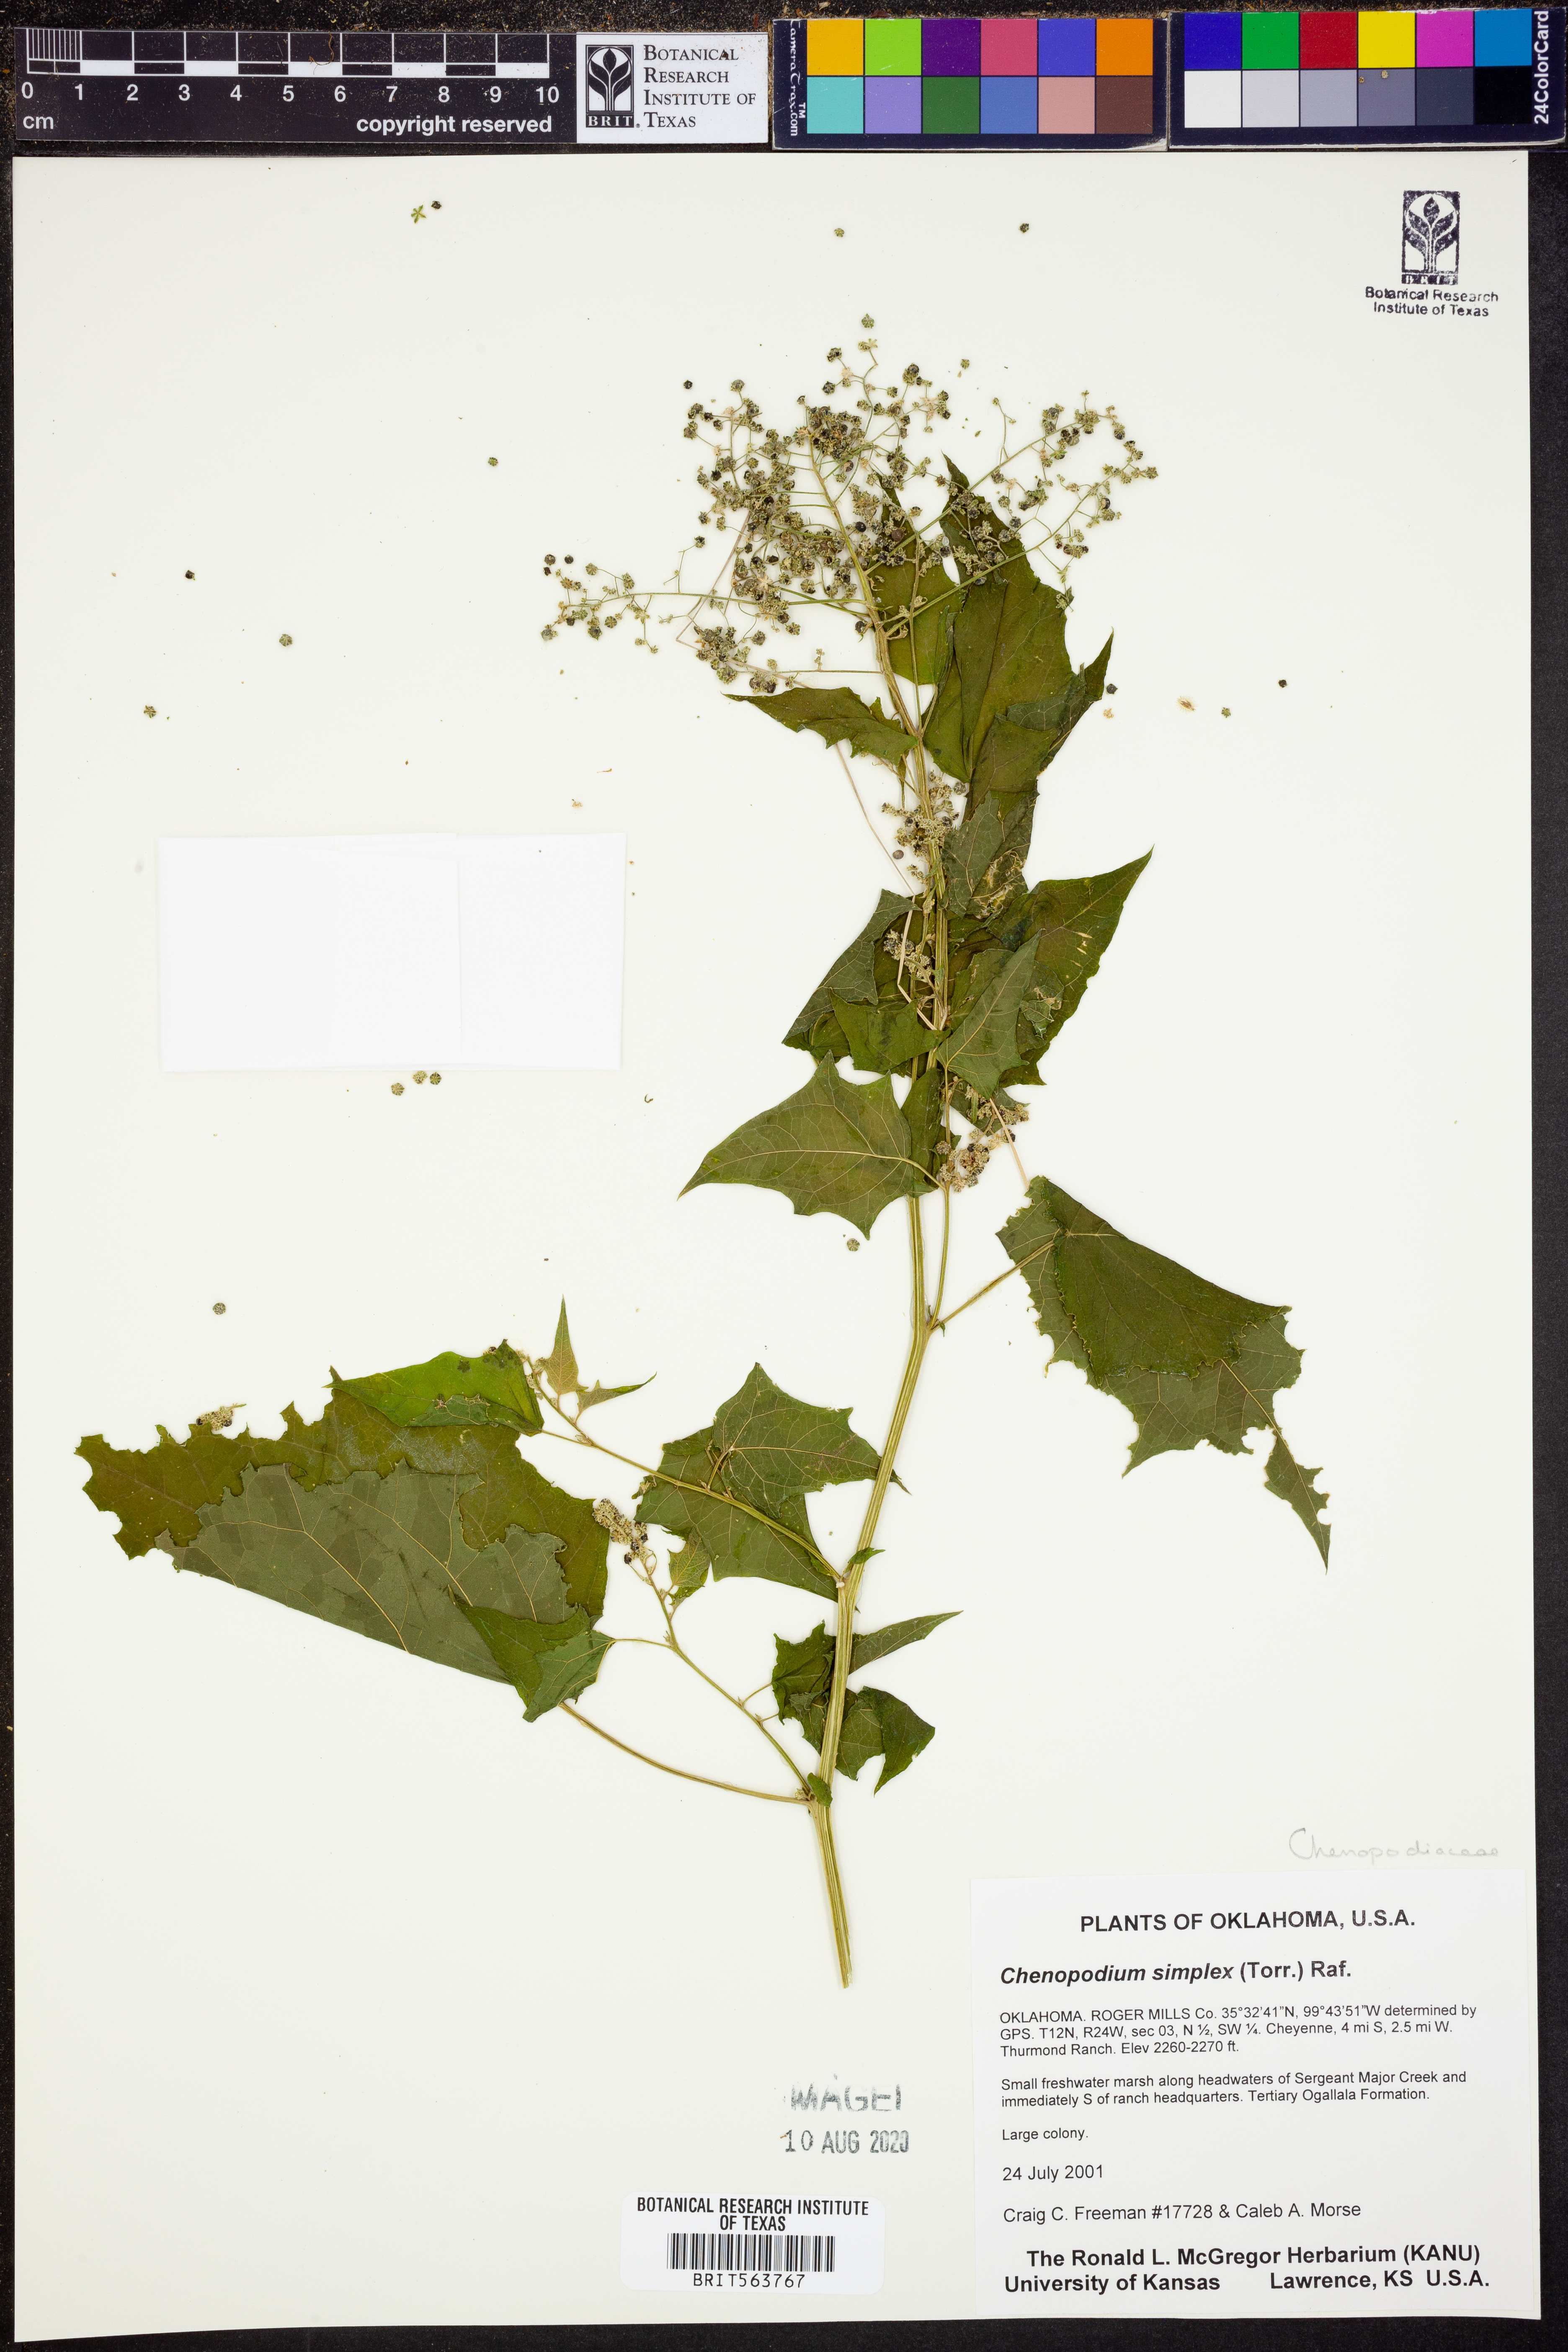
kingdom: Plantae
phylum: Tracheophyta
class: Magnoliopsida
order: Caryophyllales
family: Amaranthaceae
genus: Chenopodiastrum
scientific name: Chenopodiastrum simplex
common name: Large-seed goosefoot
